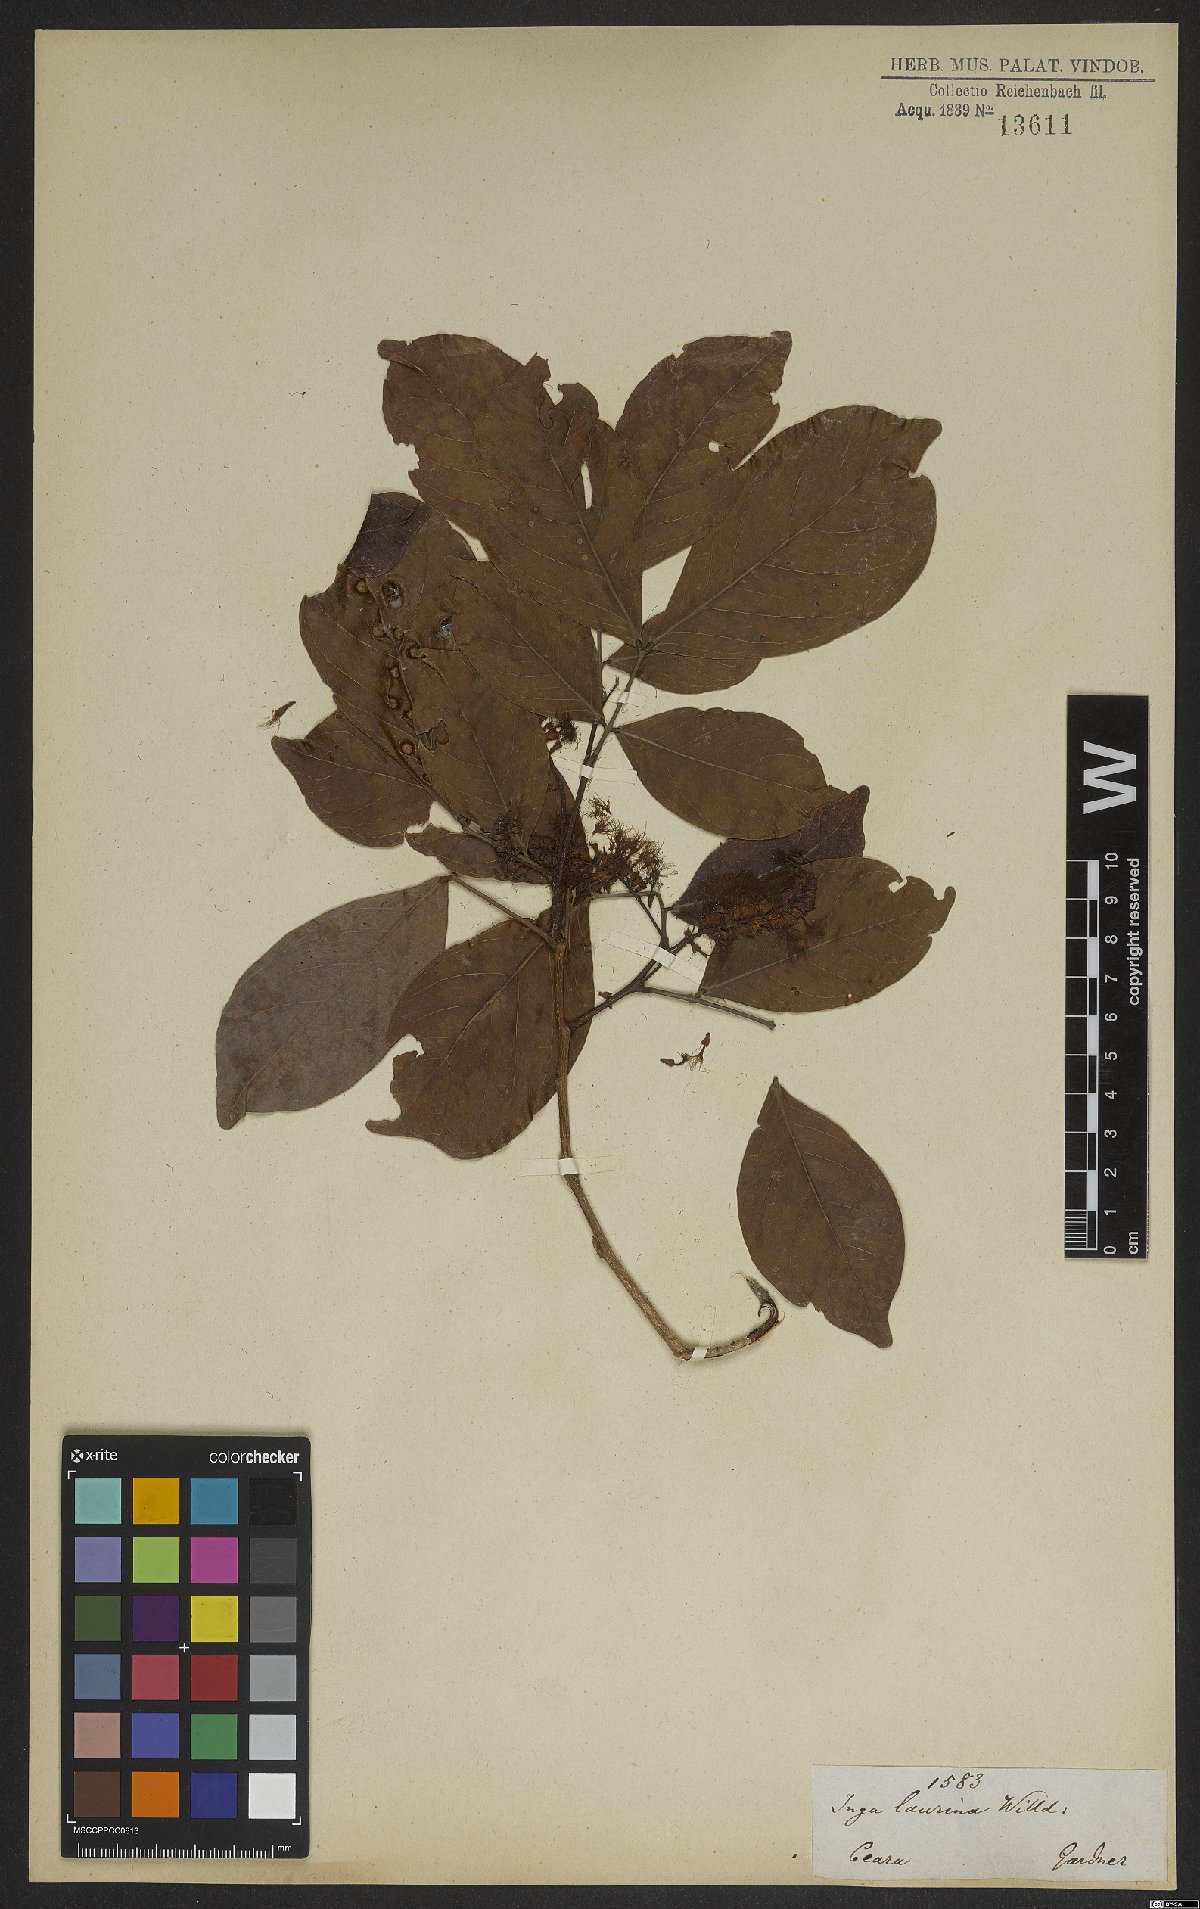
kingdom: Plantae
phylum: Tracheophyta
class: Magnoliopsida
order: Fabales
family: Fabaceae
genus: Inga
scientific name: Inga laurina
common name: Red wood
